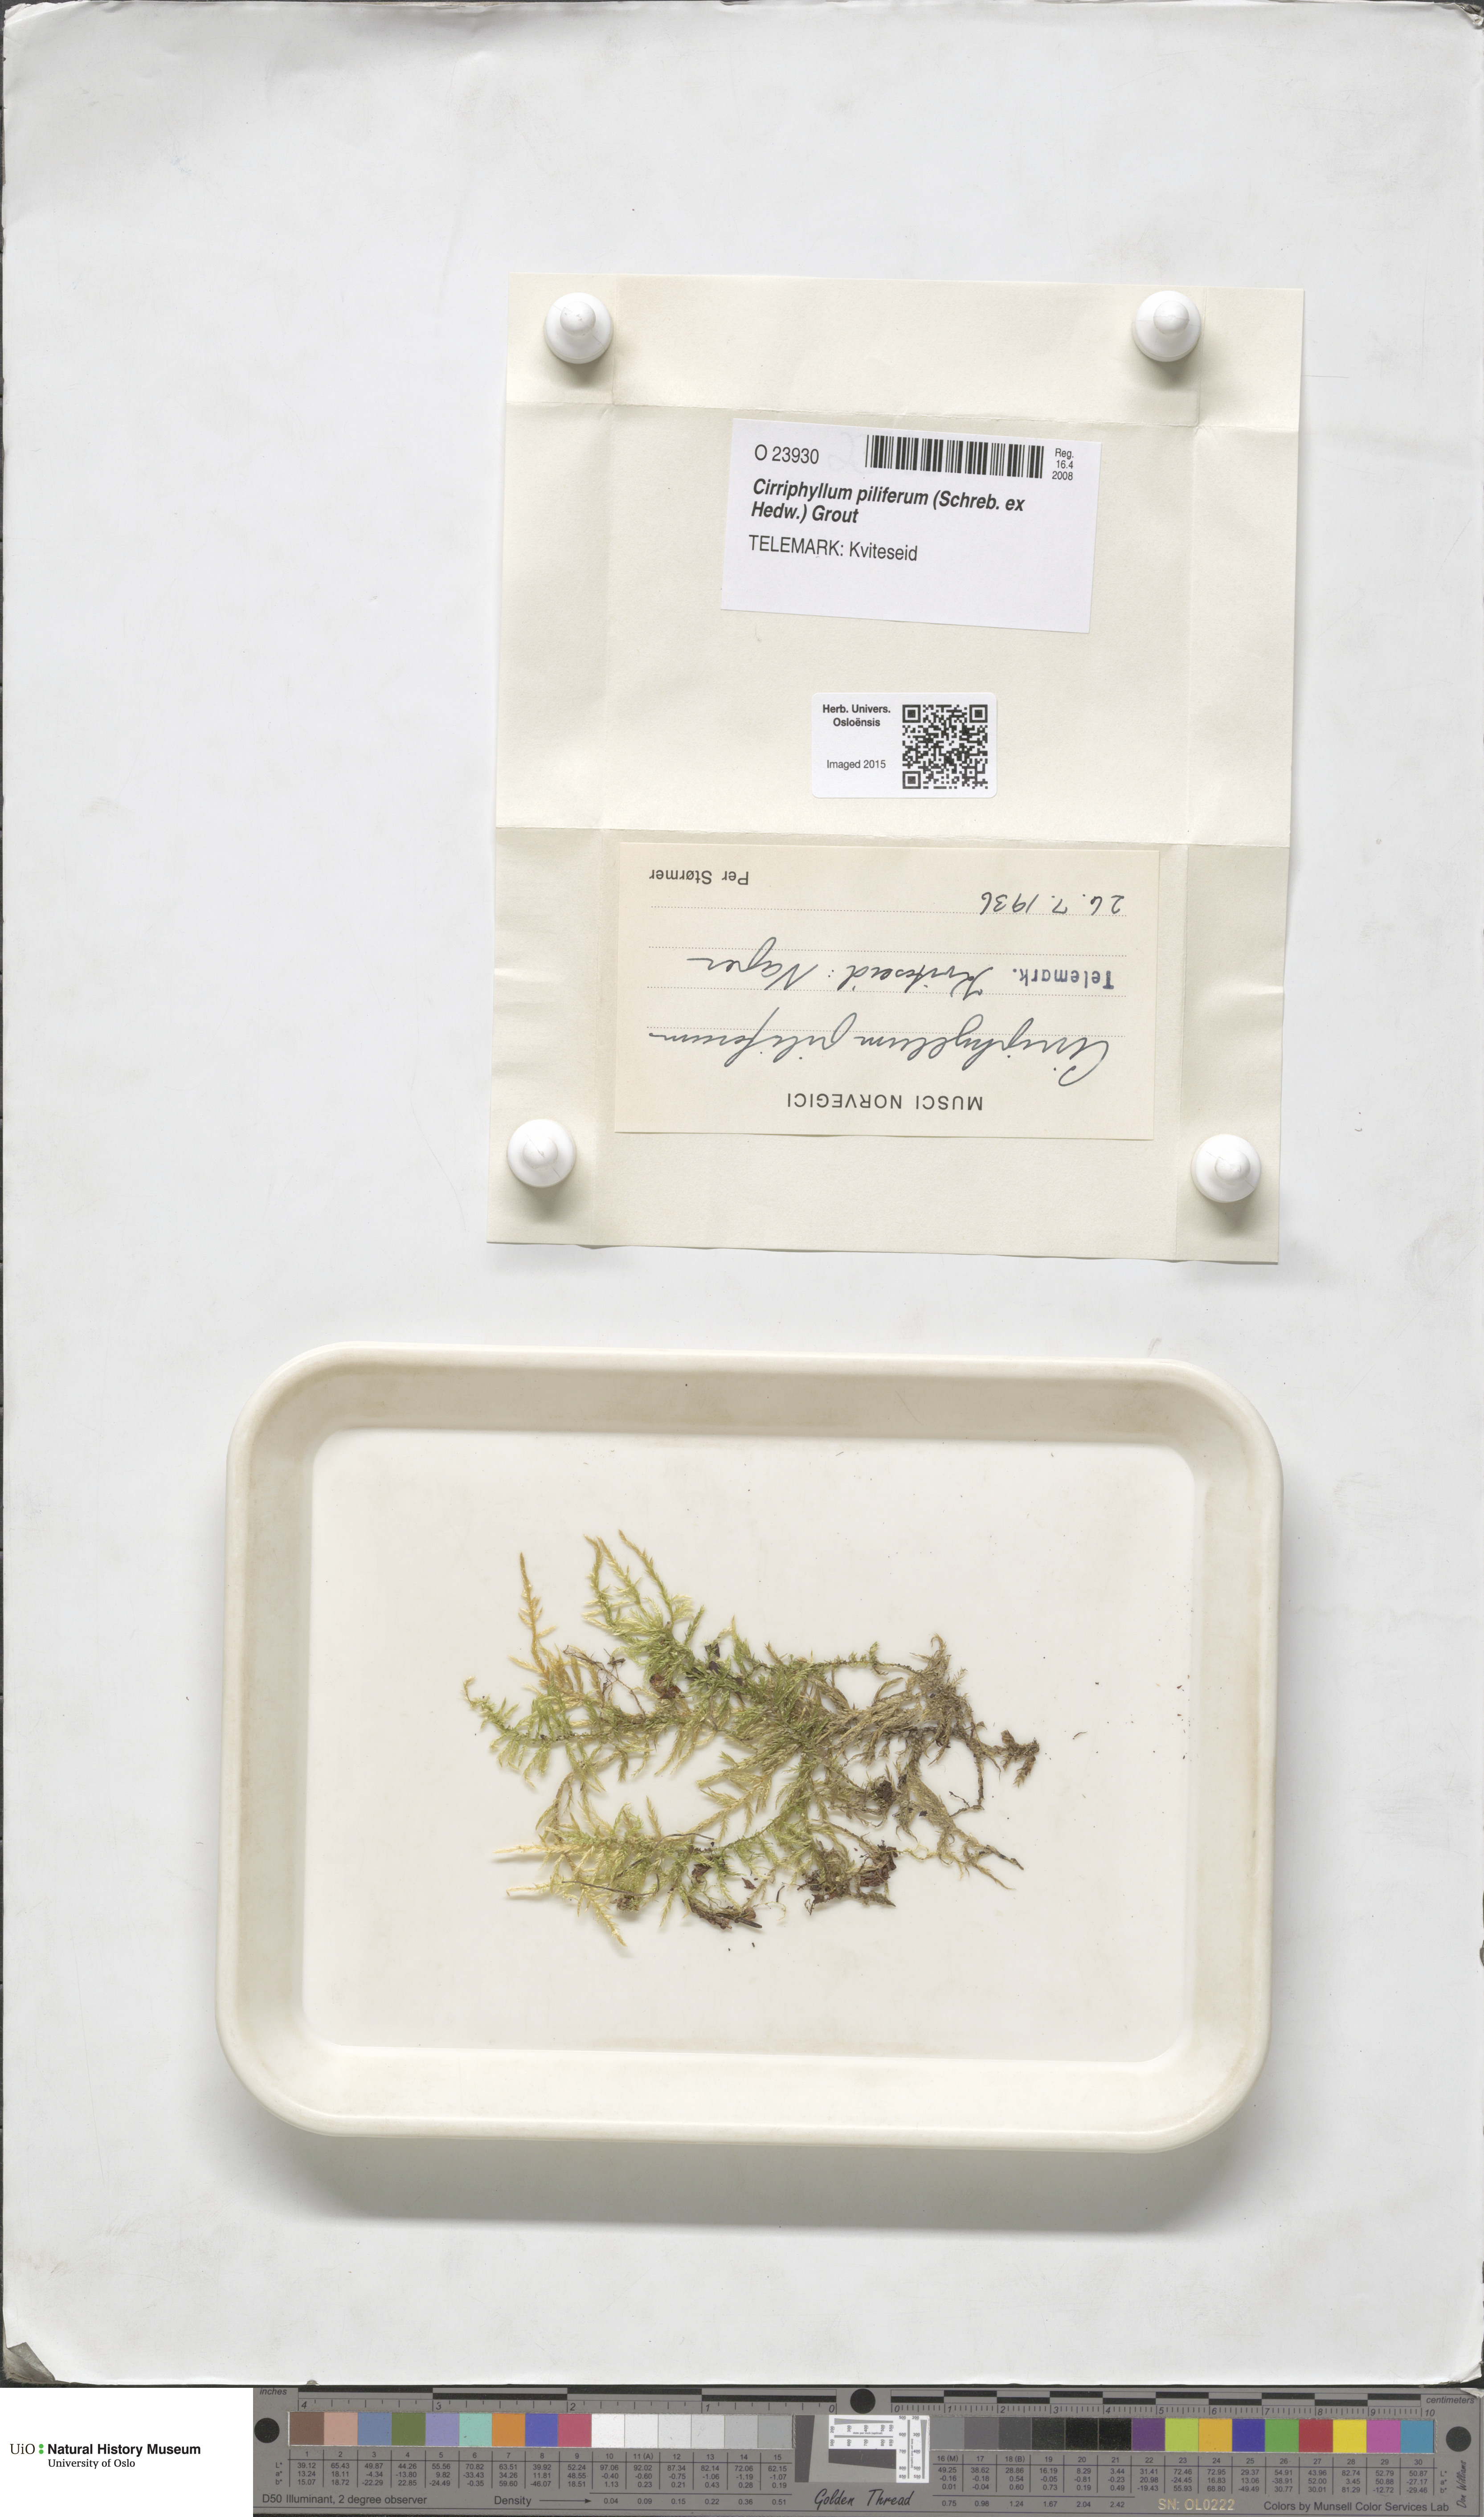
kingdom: Plantae
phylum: Bryophyta
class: Bryopsida
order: Hypnales
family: Brachytheciaceae
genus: Cirriphyllum
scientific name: Cirriphyllum piliferum
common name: Hair-pointed moss
